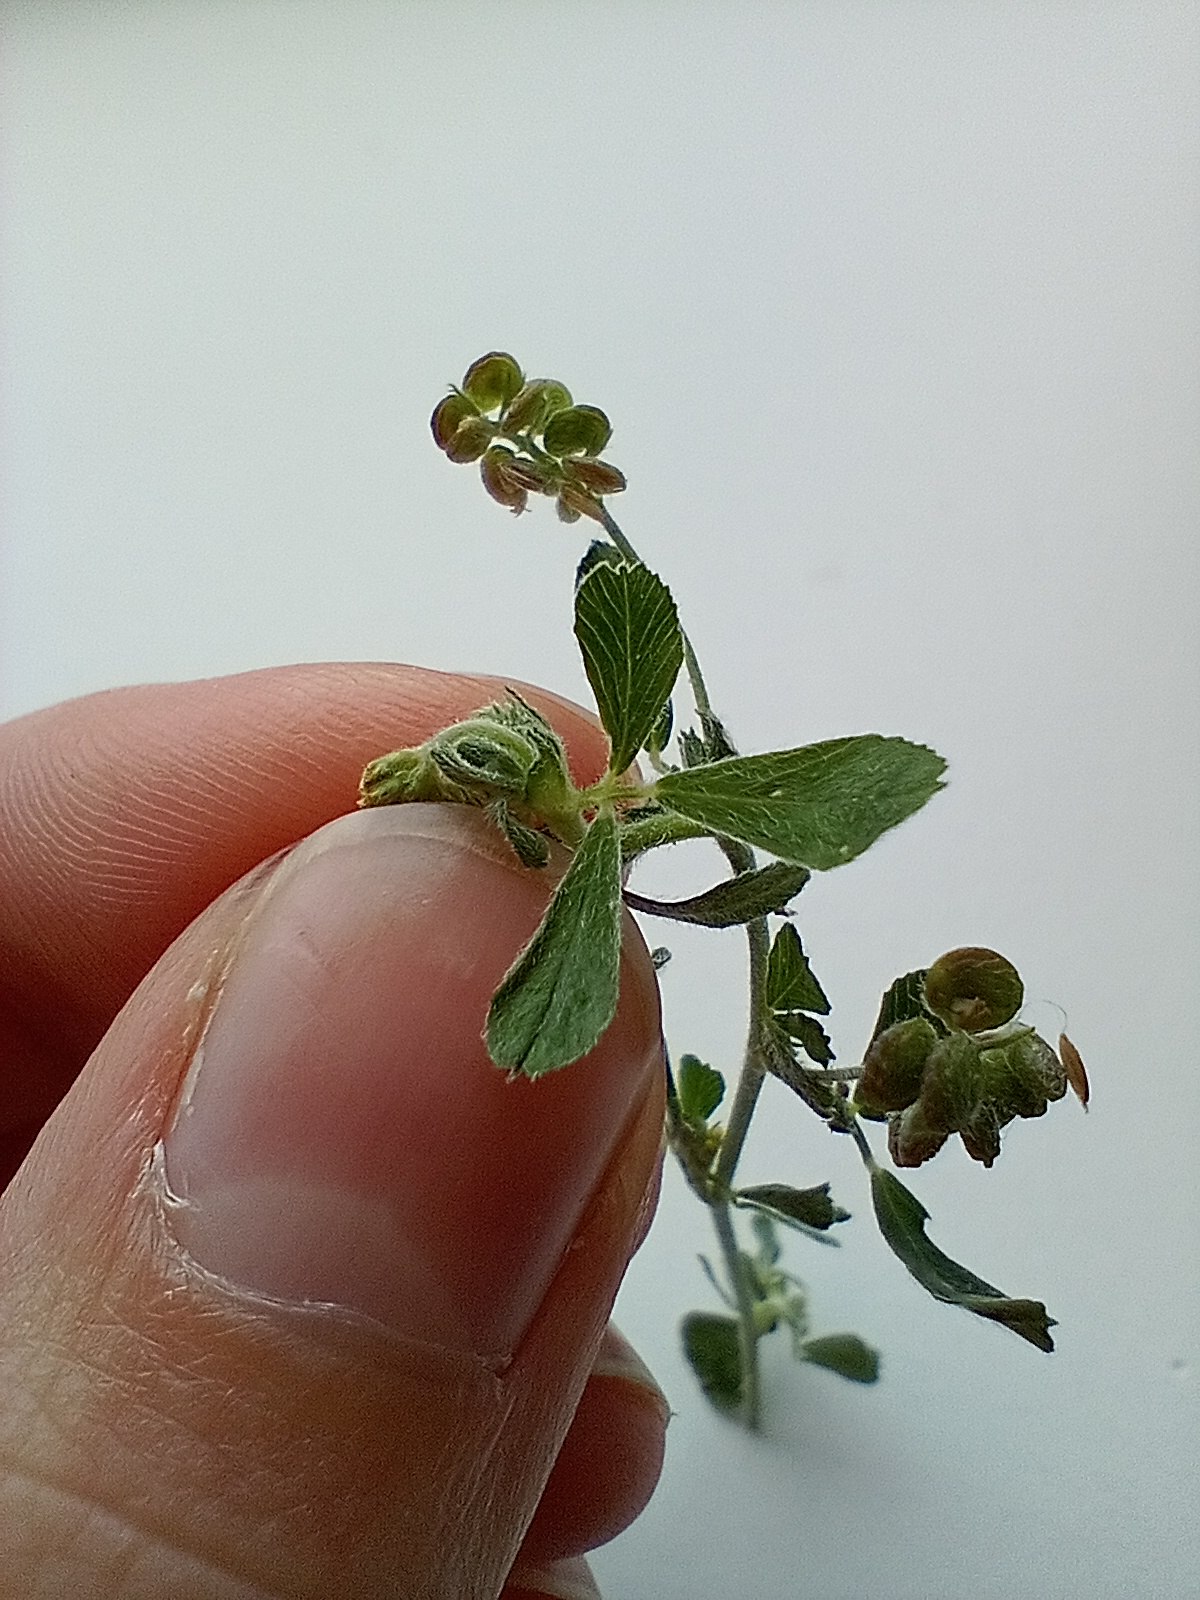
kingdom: Plantae
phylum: Tracheophyta
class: Magnoliopsida
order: Fabales
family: Fabaceae
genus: Medicago
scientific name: Medicago lupulina
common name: Humle-sneglebælg
